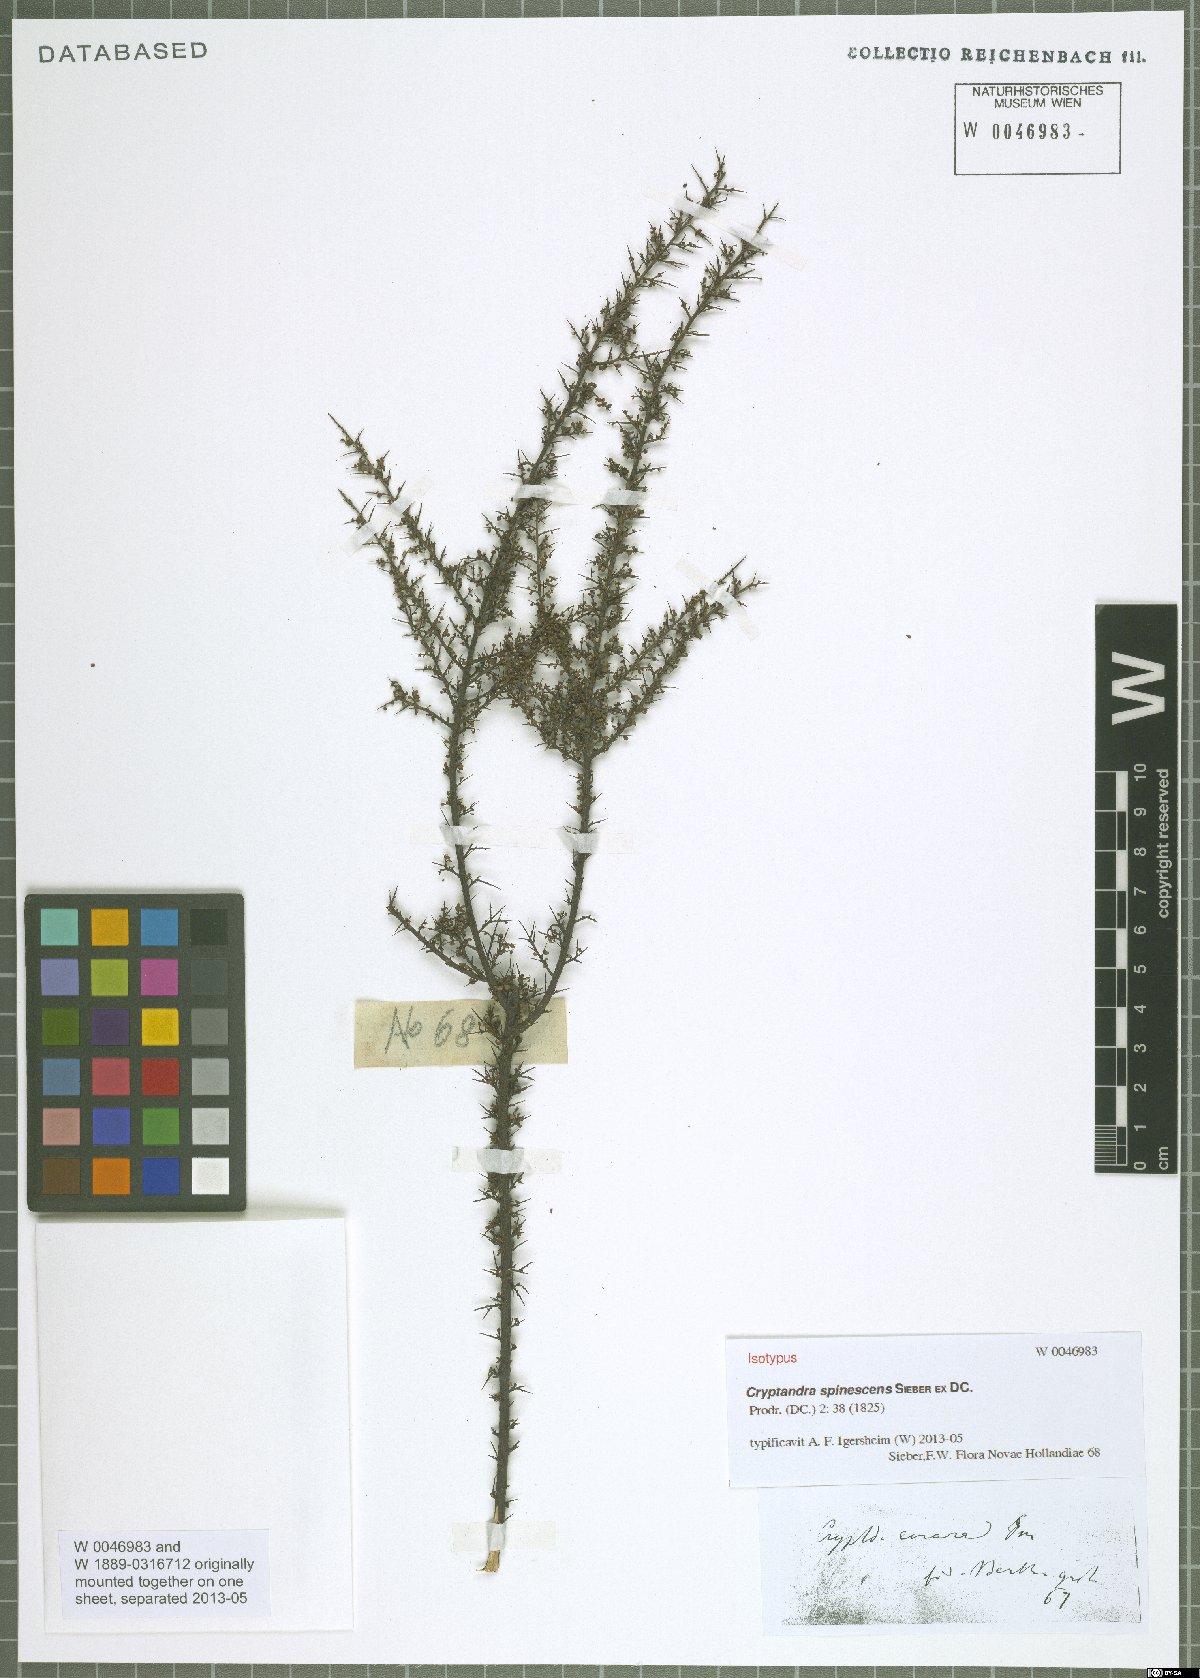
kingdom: Plantae
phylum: Tracheophyta
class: Magnoliopsida
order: Rosales
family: Rhamnaceae
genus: Cryptandra
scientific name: Cryptandra spinescens
